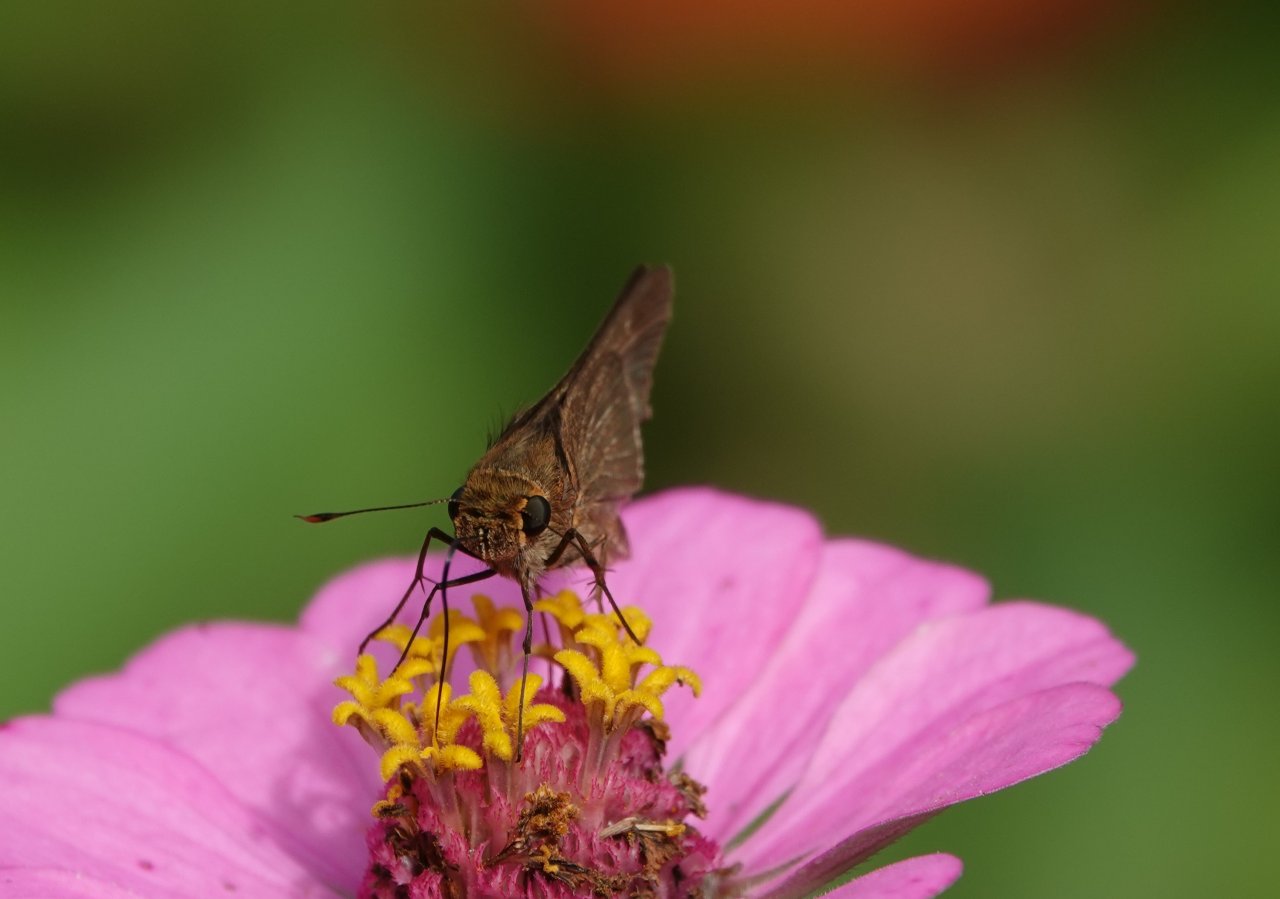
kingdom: Animalia
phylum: Arthropoda
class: Insecta
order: Lepidoptera
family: Hesperiidae
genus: Panoquina
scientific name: Panoquina ocola
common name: Ocola Skipper
